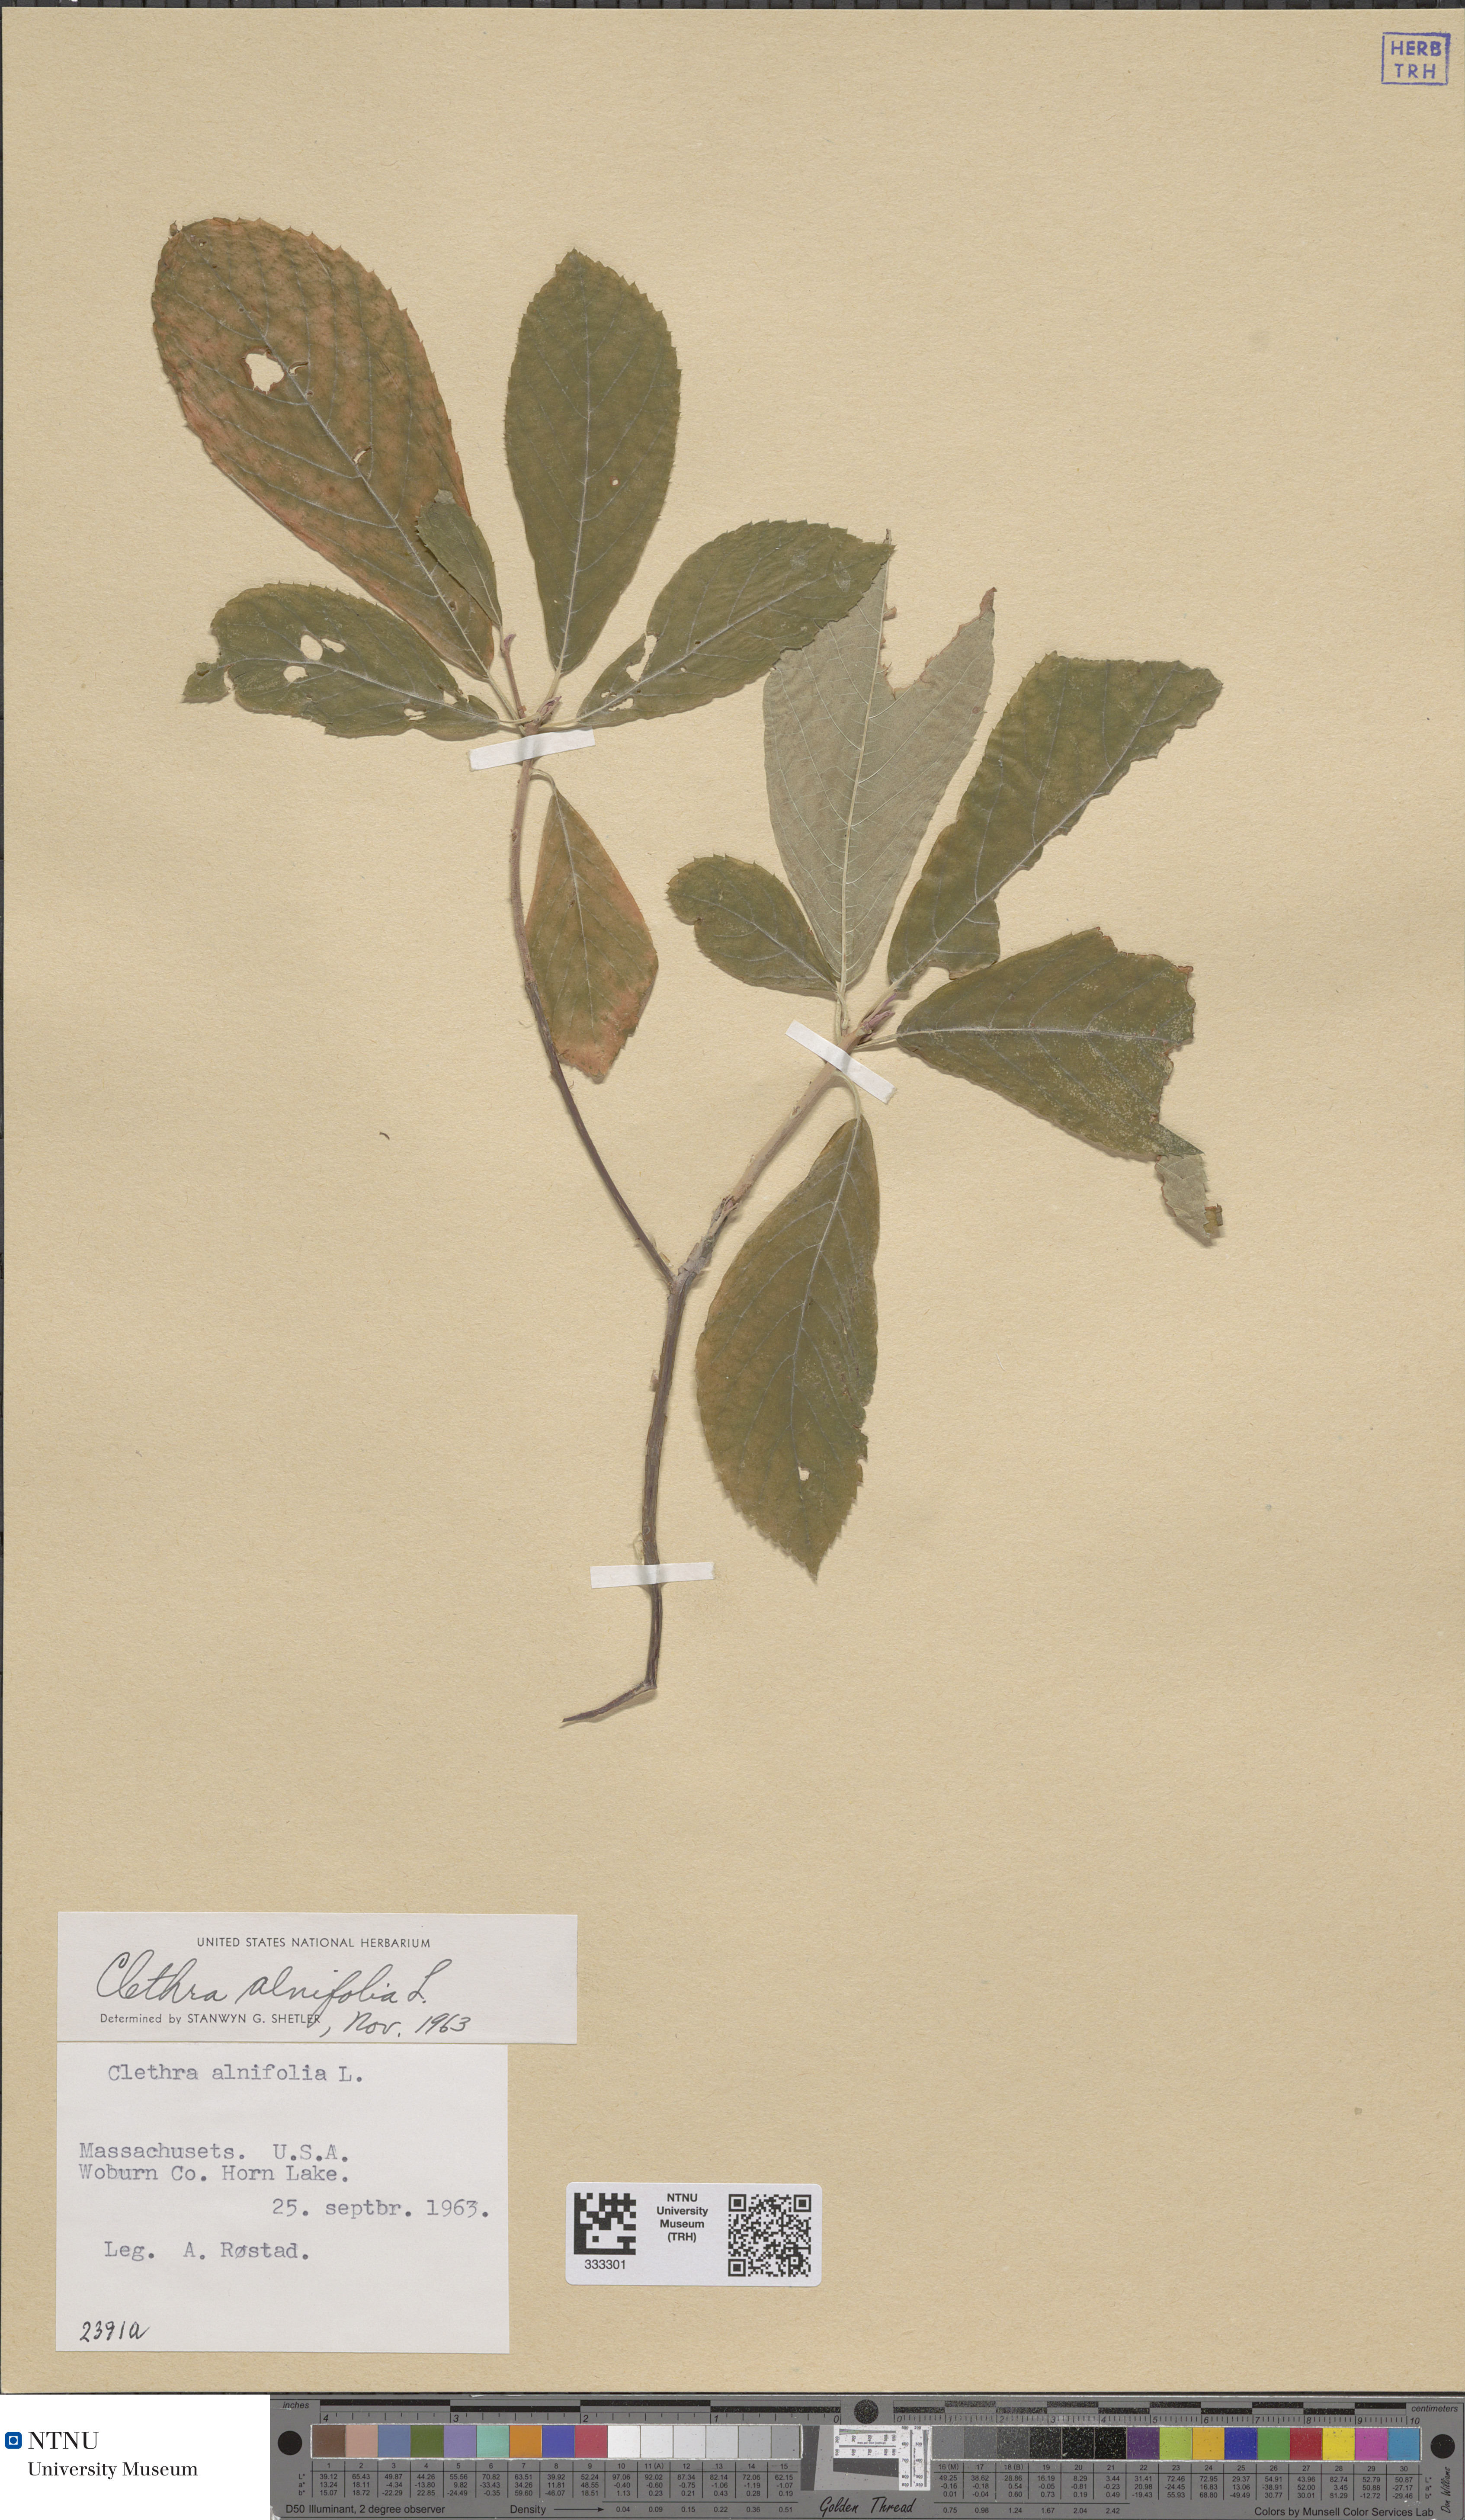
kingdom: Plantae
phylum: Tracheophyta
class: Magnoliopsida
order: Ericales
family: Clethraceae
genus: Clethra
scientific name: Clethra alnifolia
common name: Sweet pepperbush
